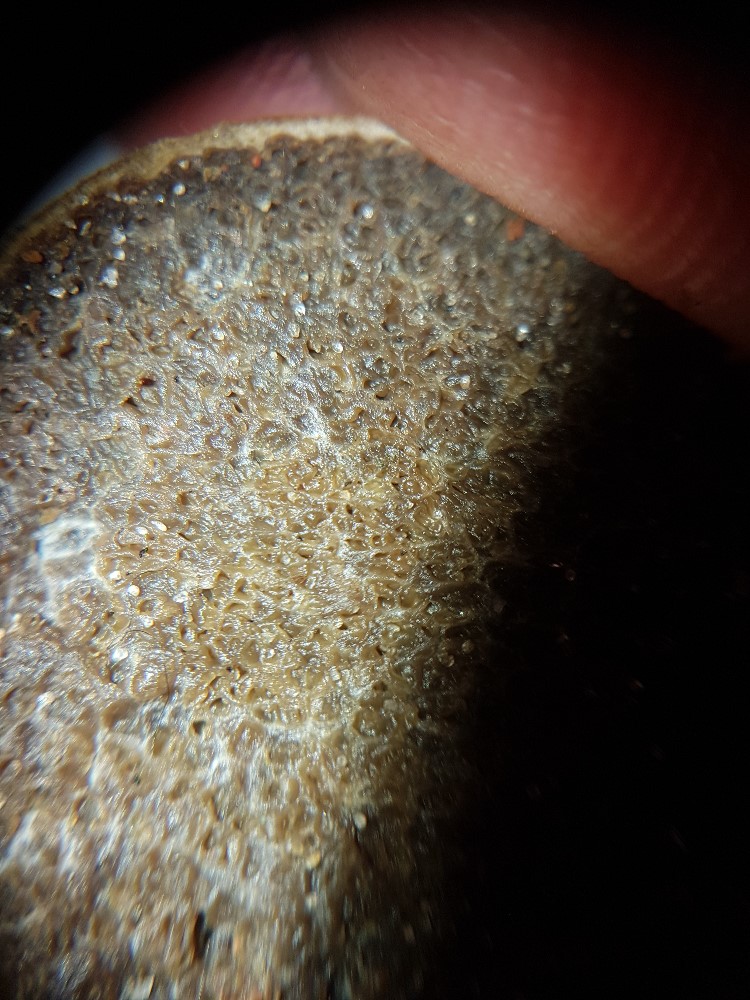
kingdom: Fungi
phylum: Basidiomycota
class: Agaricomycetes
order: Boletales
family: Rhizopogonaceae
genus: Rhizopogon
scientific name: Rhizopogon obtextus
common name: gul skægtrøffel
